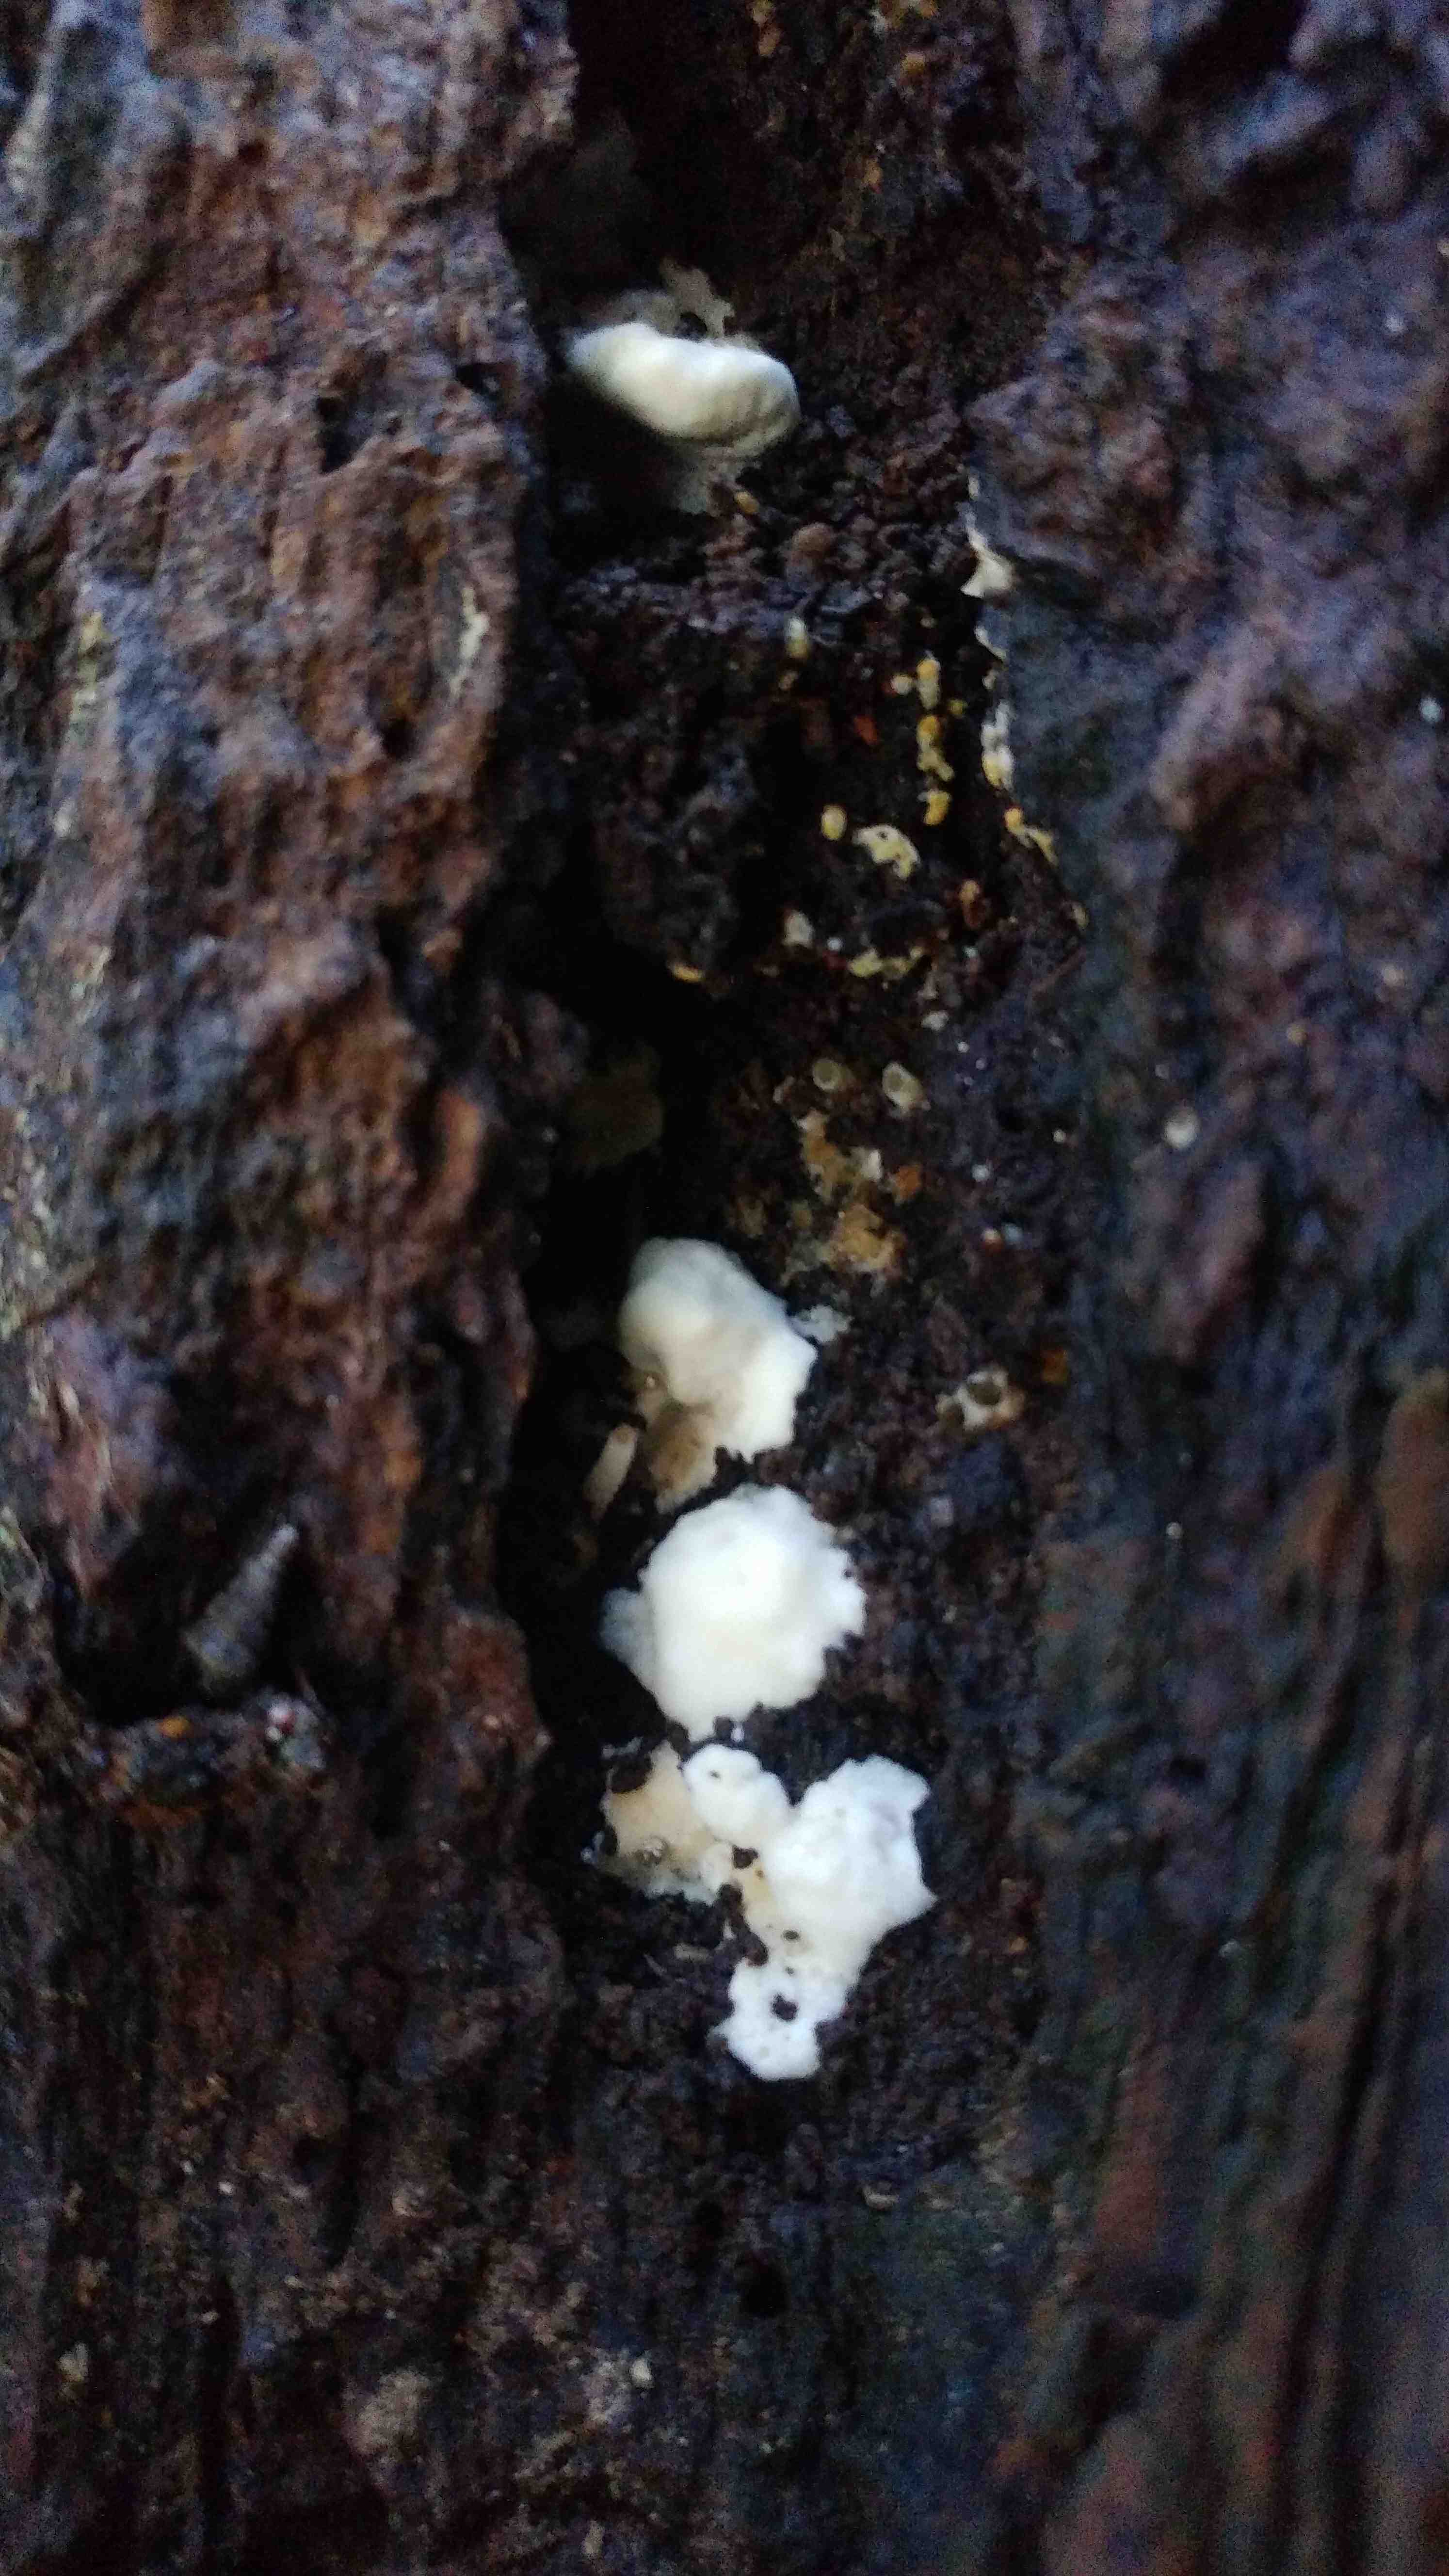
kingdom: Fungi
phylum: Basidiomycota
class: Agaricomycetes
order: Hymenochaetales
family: Oxyporaceae
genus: Oxyporus
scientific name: Oxyporus populinus
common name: sammenvokset trylleporesvamp
